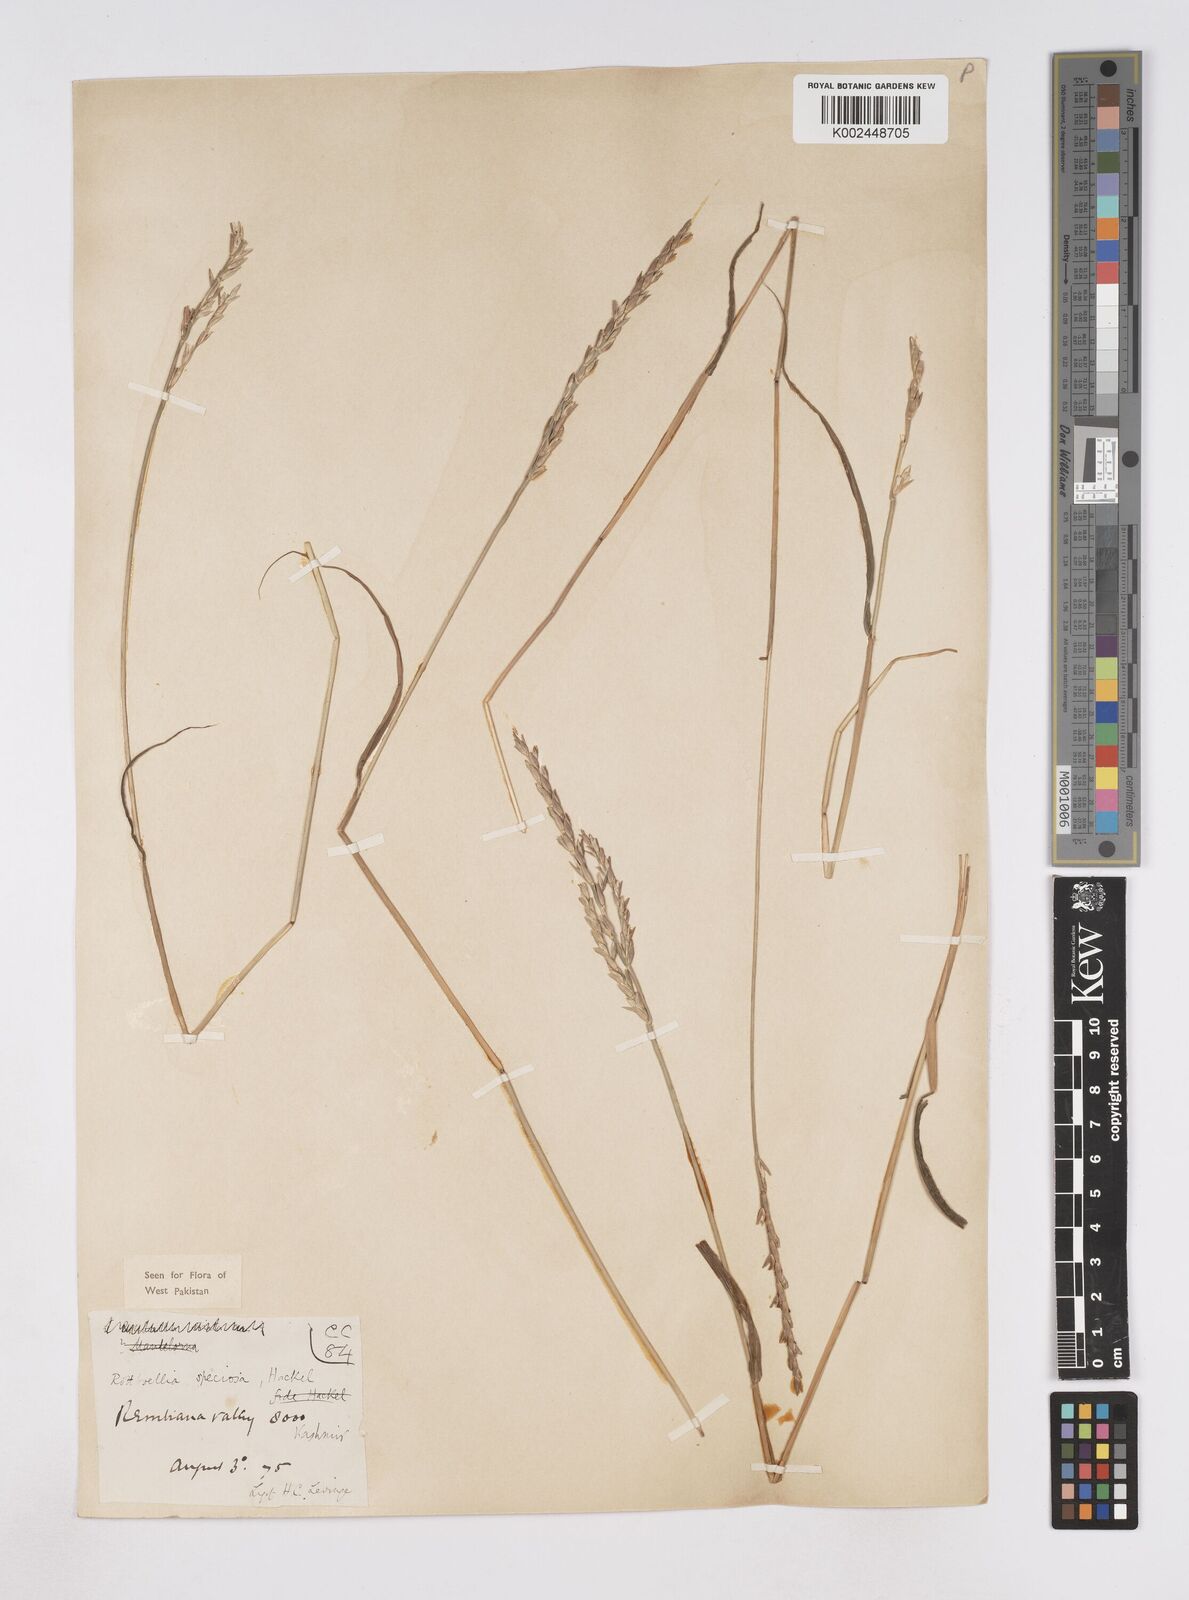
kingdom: Plantae
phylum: Tracheophyta
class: Liliopsida
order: Poales
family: Poaceae
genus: Phacelurus
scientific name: Phacelurus speciosus
